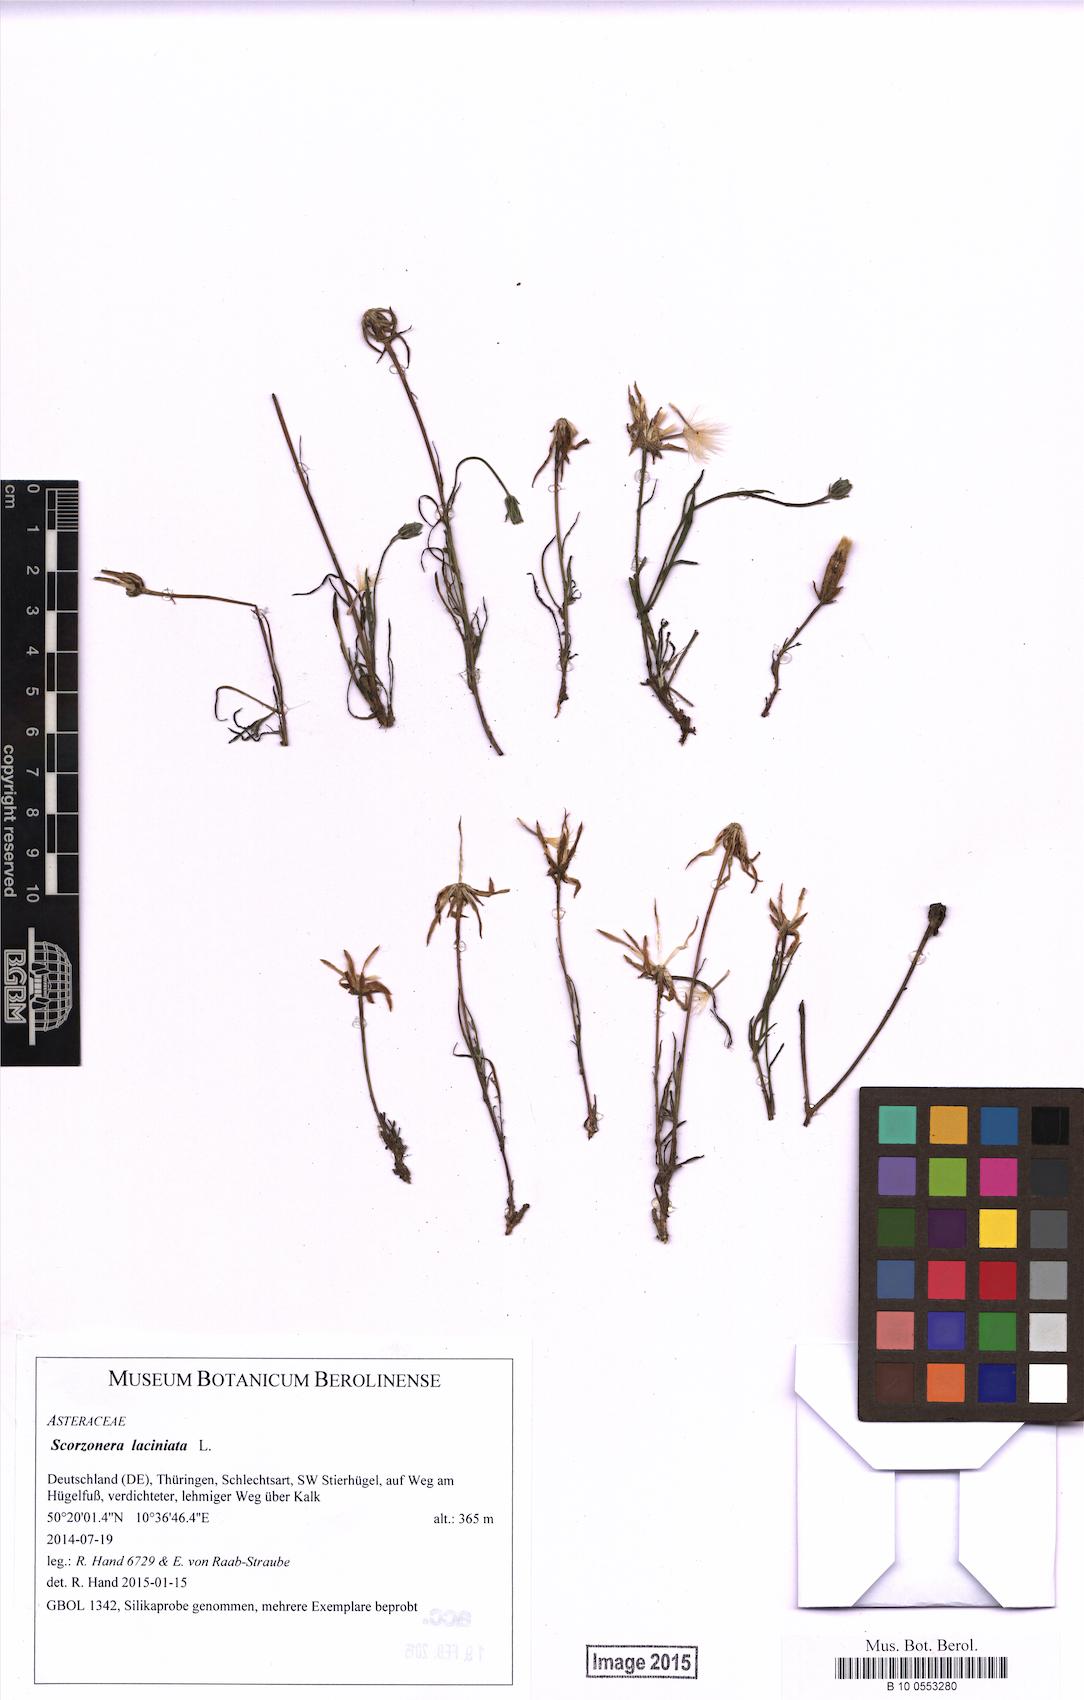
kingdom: Plantae
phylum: Tracheophyta
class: Magnoliopsida
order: Asterales
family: Asteraceae
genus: Scorzonera
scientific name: Scorzonera laciniata
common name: Cutleaf vipergrass
